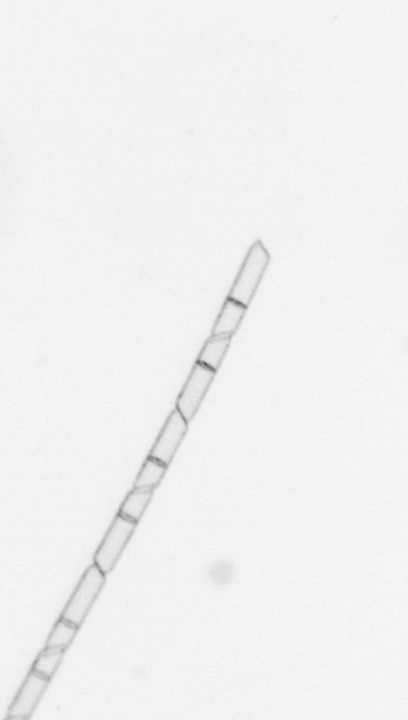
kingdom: Chromista
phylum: Ochrophyta
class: Bacillariophyceae
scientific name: Bacillariophyceae
